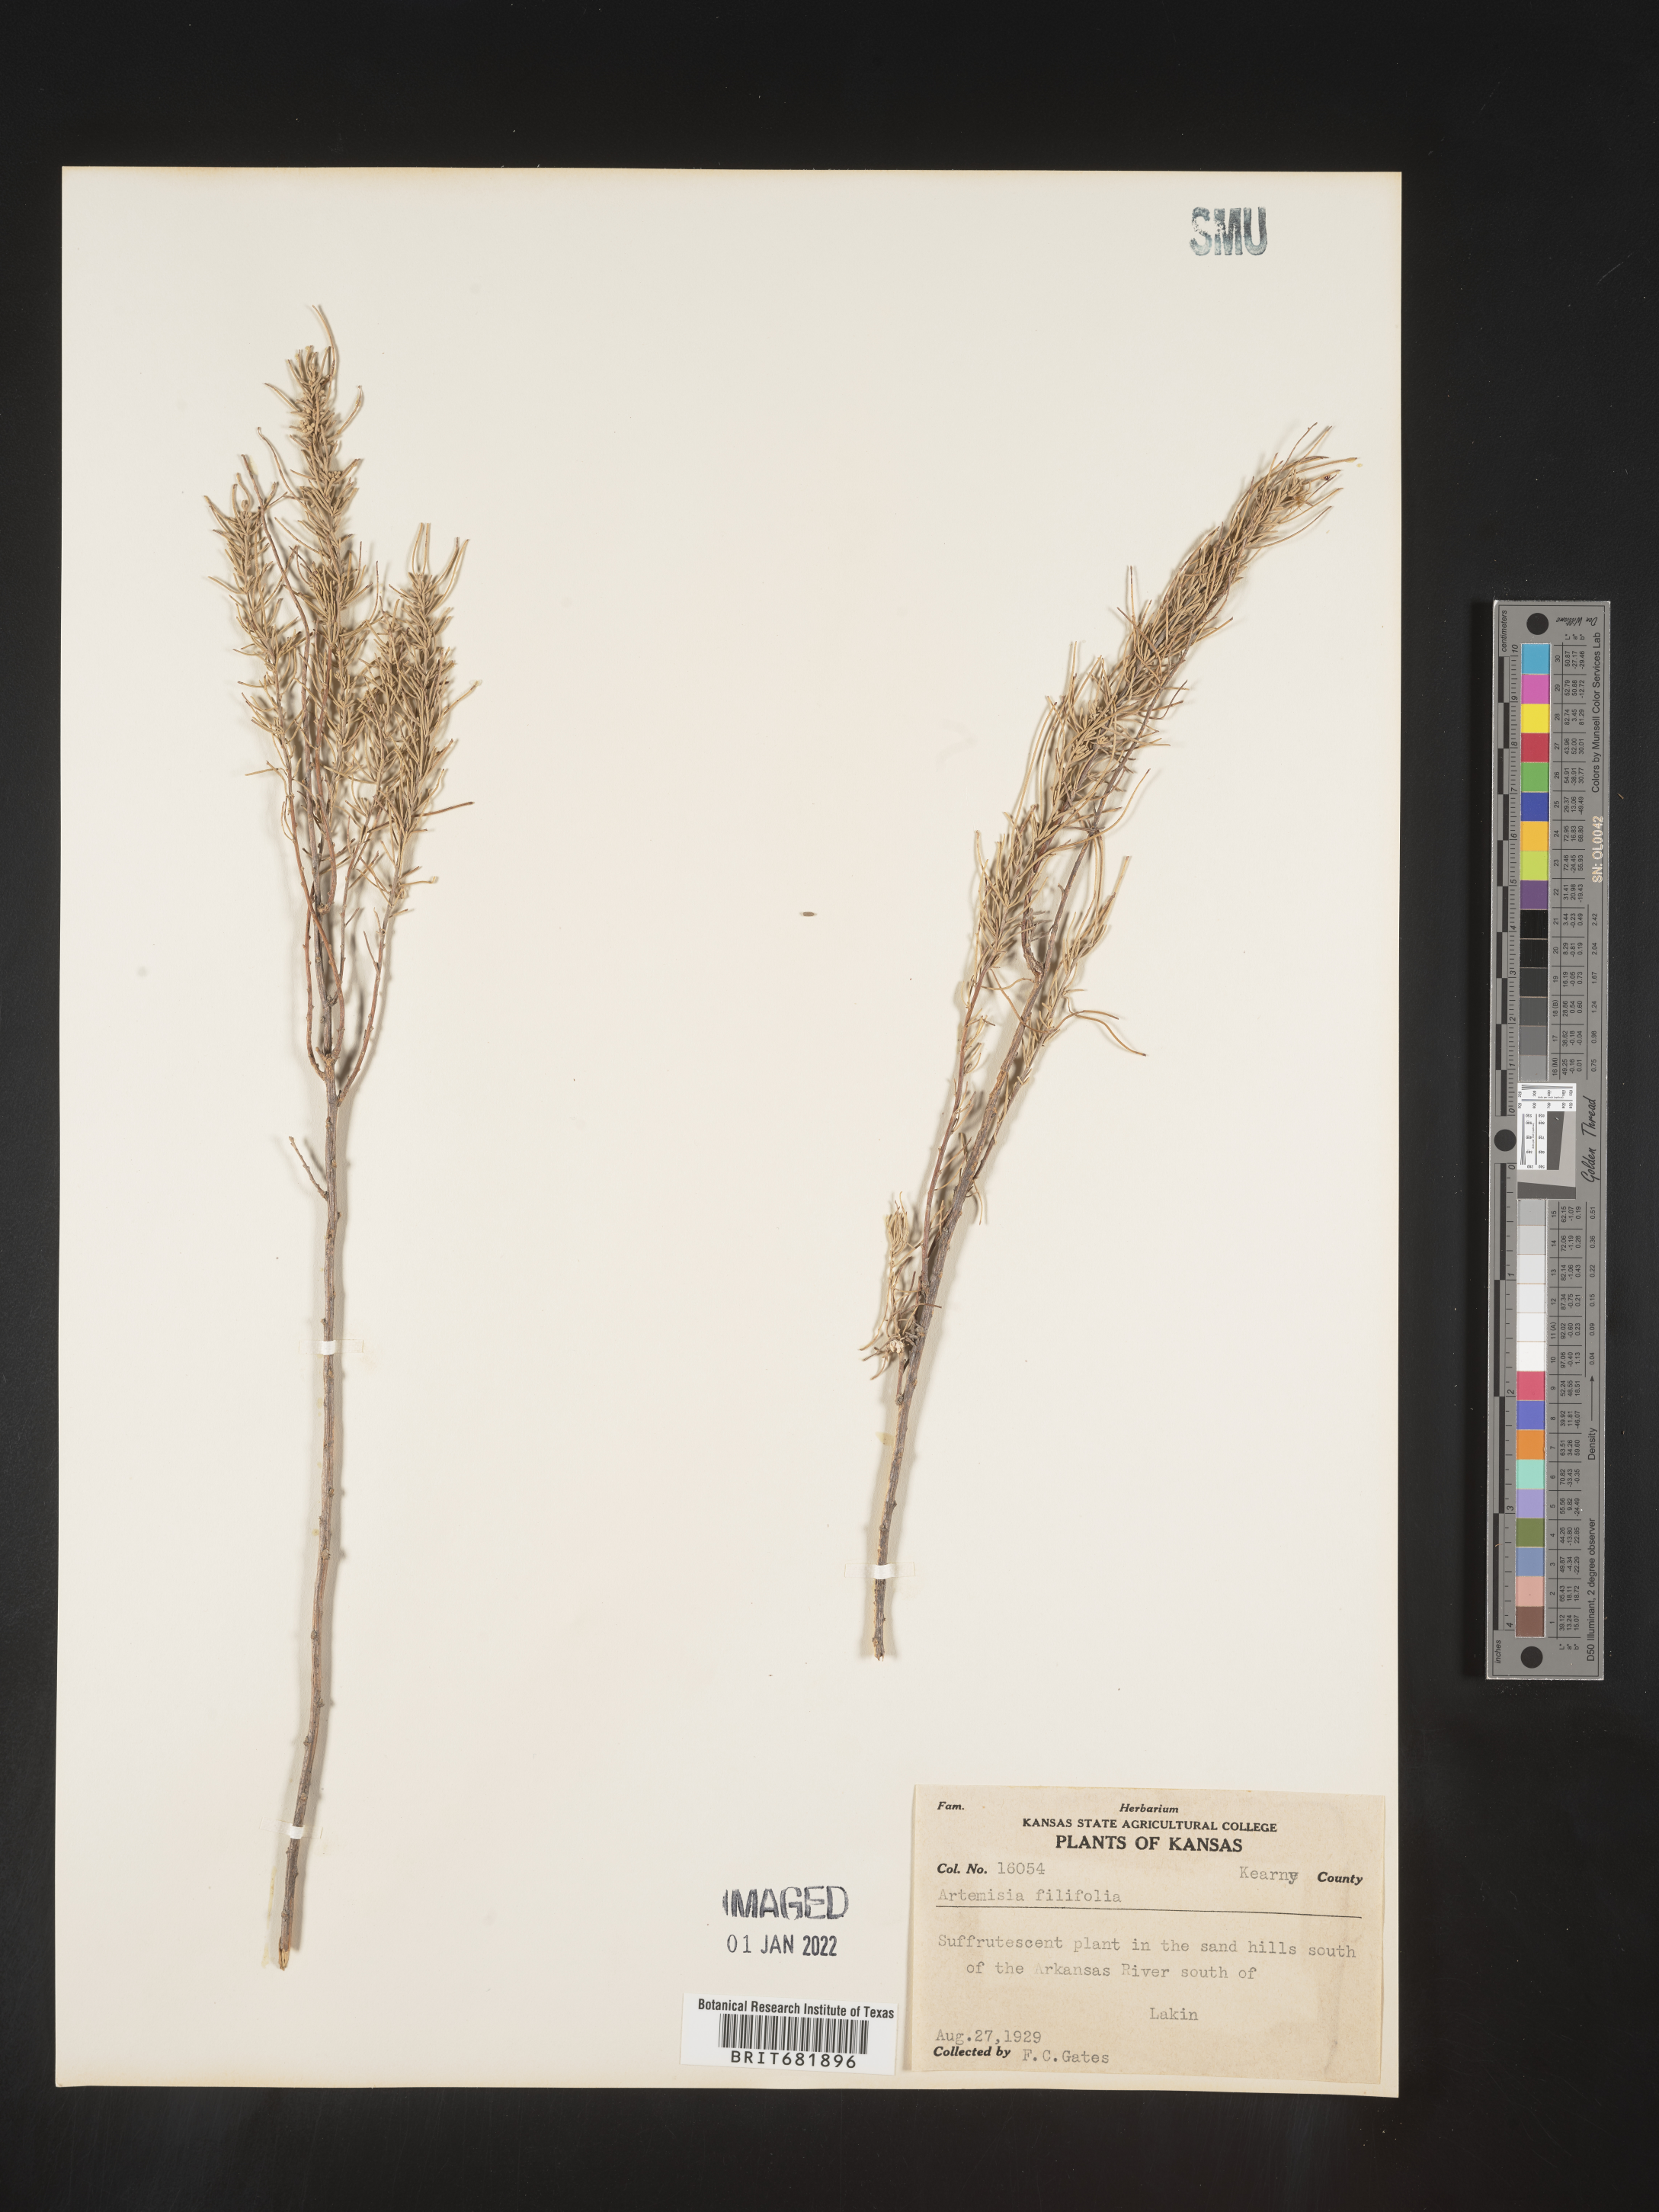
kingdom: Plantae
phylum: Tracheophyta
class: Magnoliopsida
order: Asterales
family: Asteraceae
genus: Artemisia
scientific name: Artemisia filifolia
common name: Sand-sage
